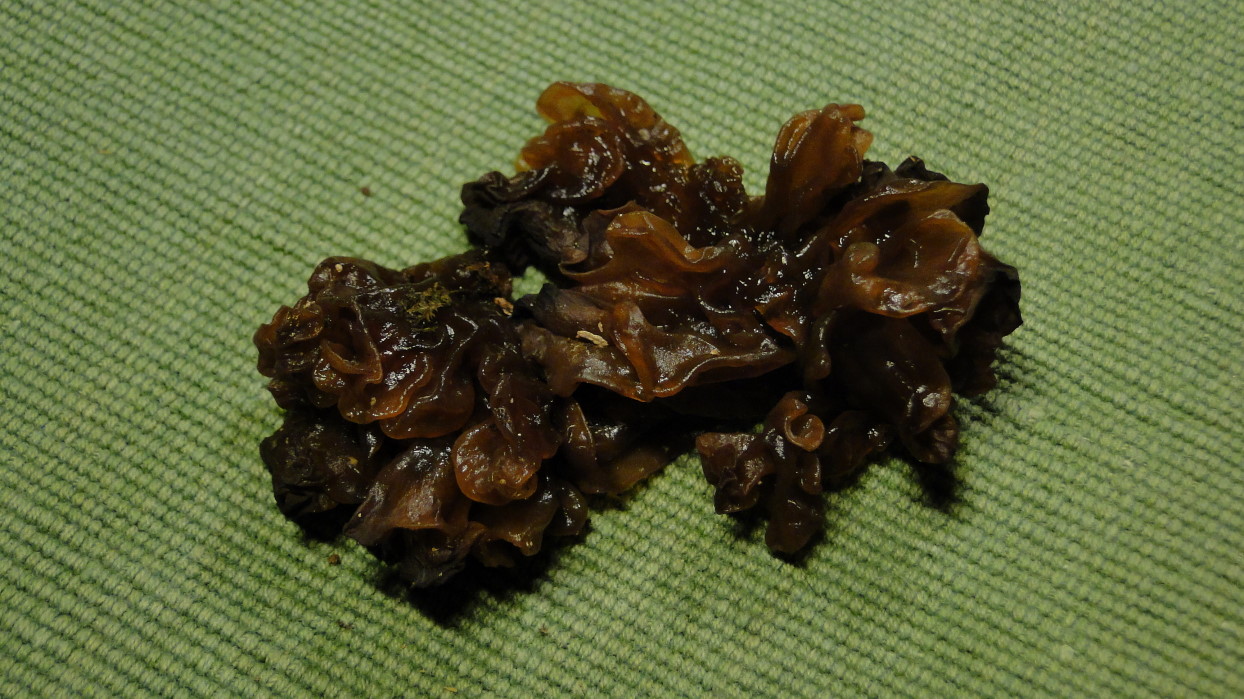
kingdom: Fungi
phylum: Basidiomycota
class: Tremellomycetes
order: Tremellales
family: Tremellaceae
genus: Phaeotremella
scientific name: Phaeotremella frondosa
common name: kæmpe-bævresvamp
